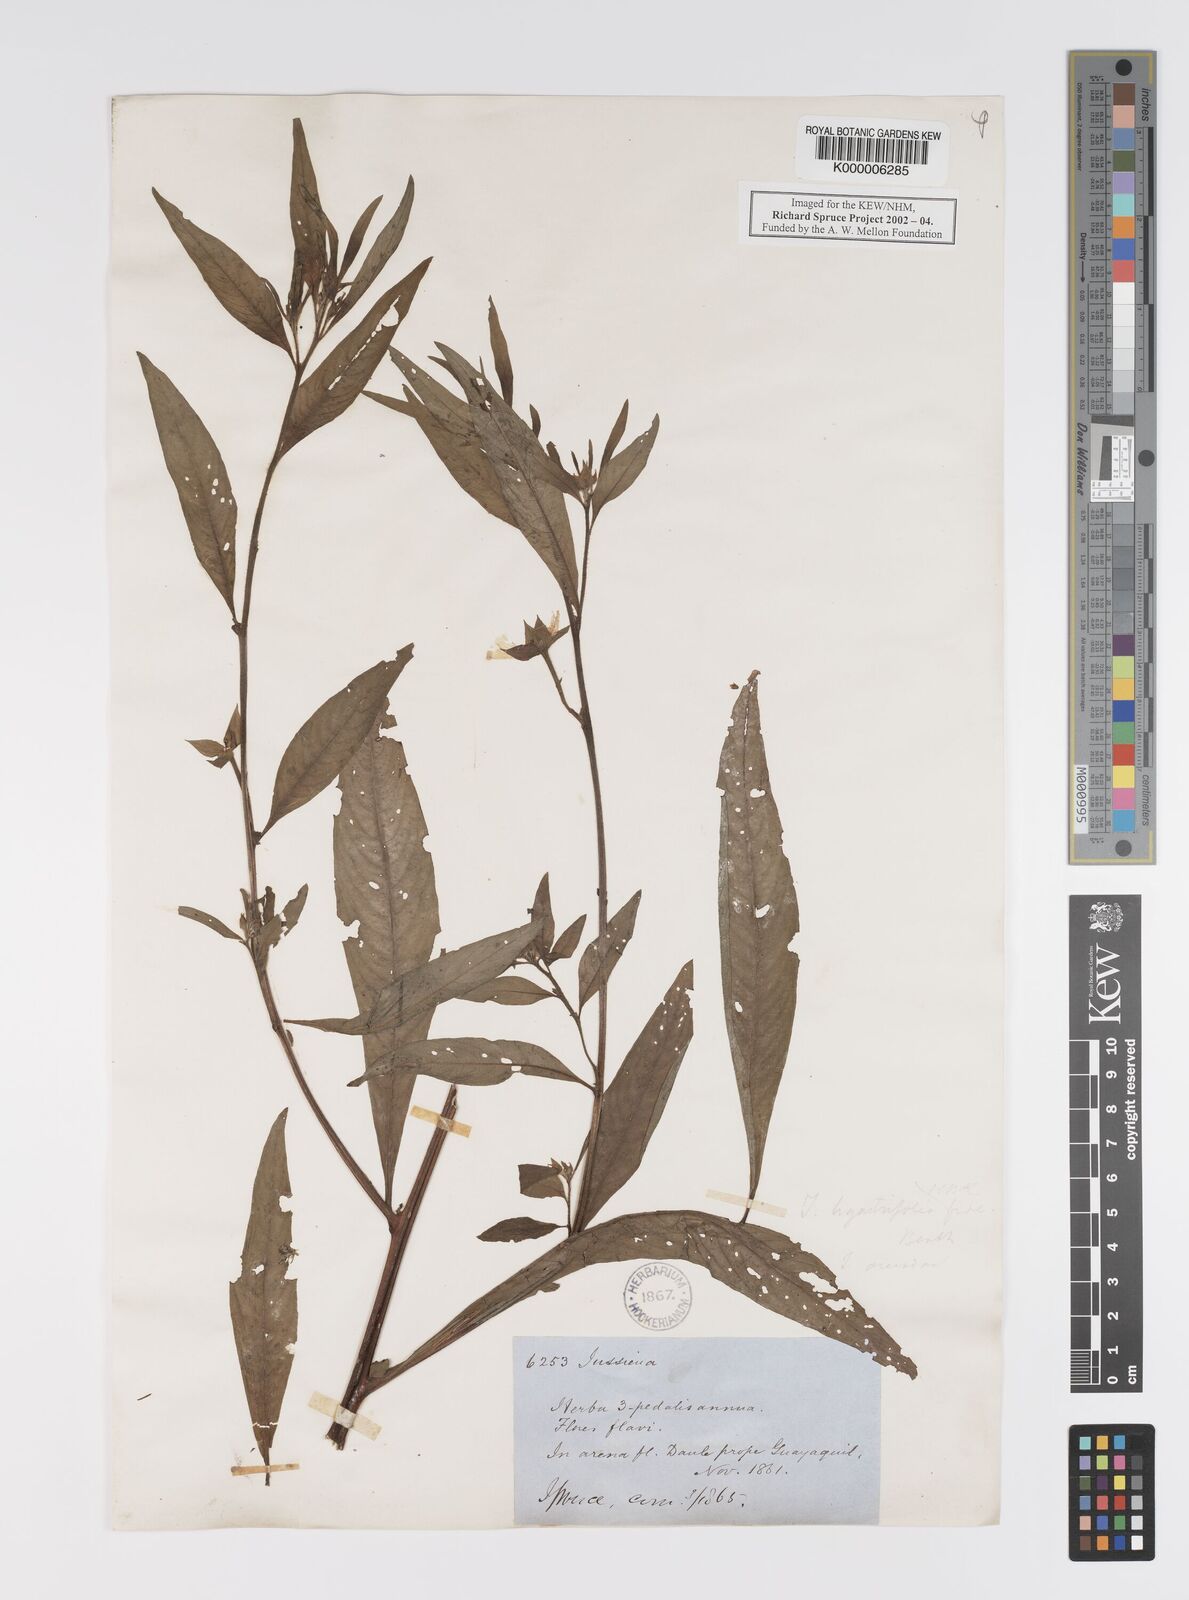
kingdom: Plantae
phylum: Tracheophyta
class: Magnoliopsida
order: Myrtales
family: Onagraceae
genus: Ludwigia
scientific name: Ludwigia
